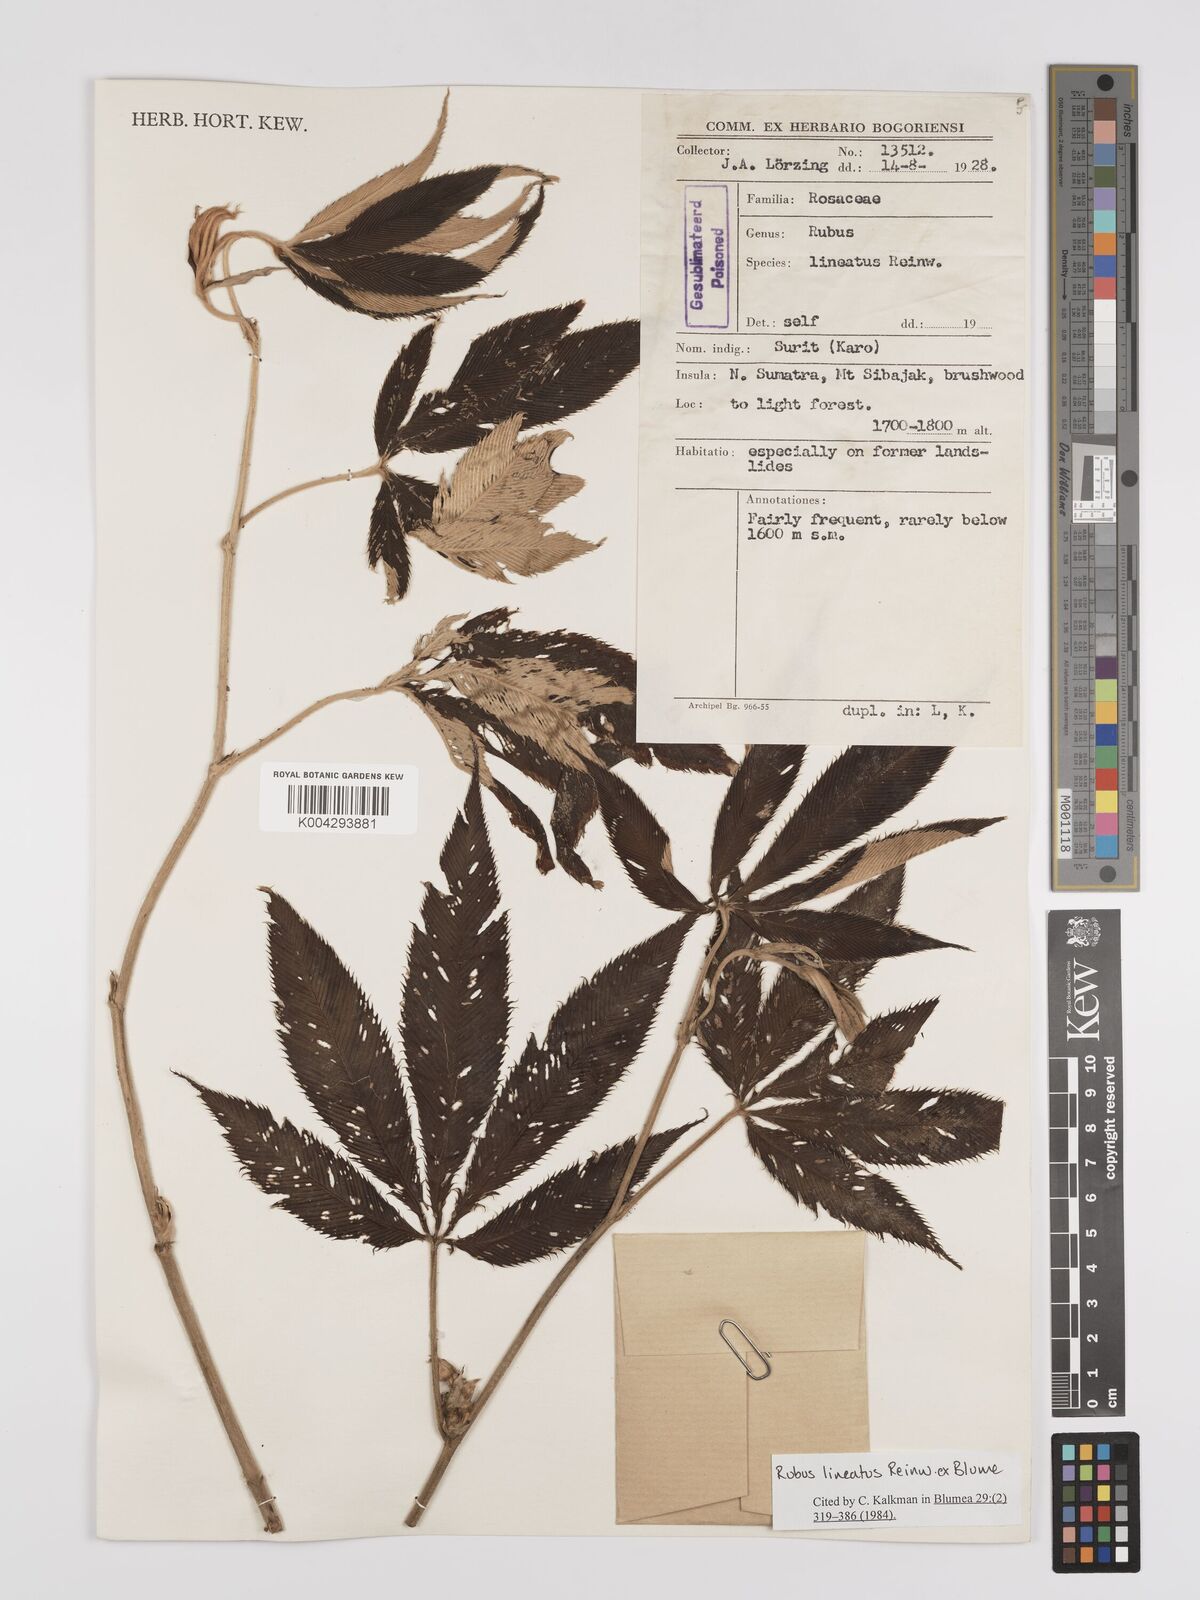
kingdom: Plantae
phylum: Tracheophyta
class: Magnoliopsida
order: Rosales
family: Rosaceae
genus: Rubus
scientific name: Rubus lineatus
